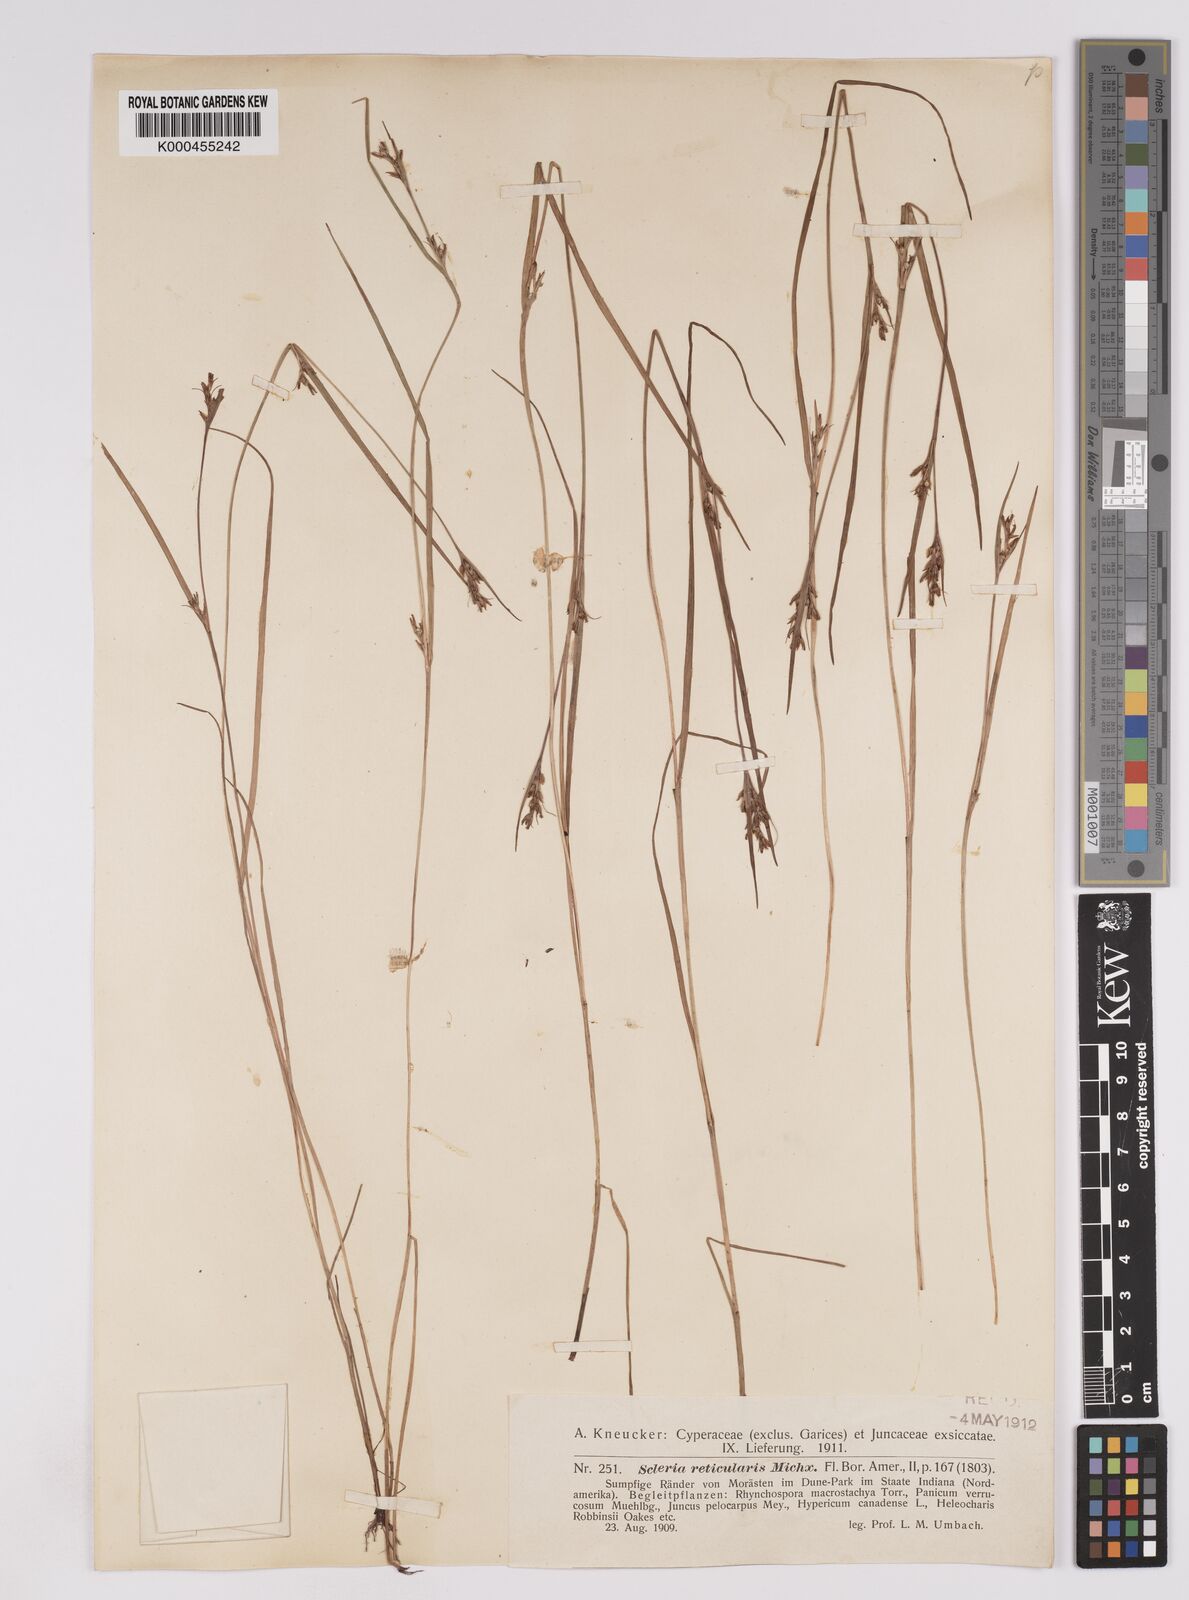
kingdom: Plantae
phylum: Tracheophyta
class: Liliopsida
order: Poales
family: Cyperaceae
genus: Scleria
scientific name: Scleria
